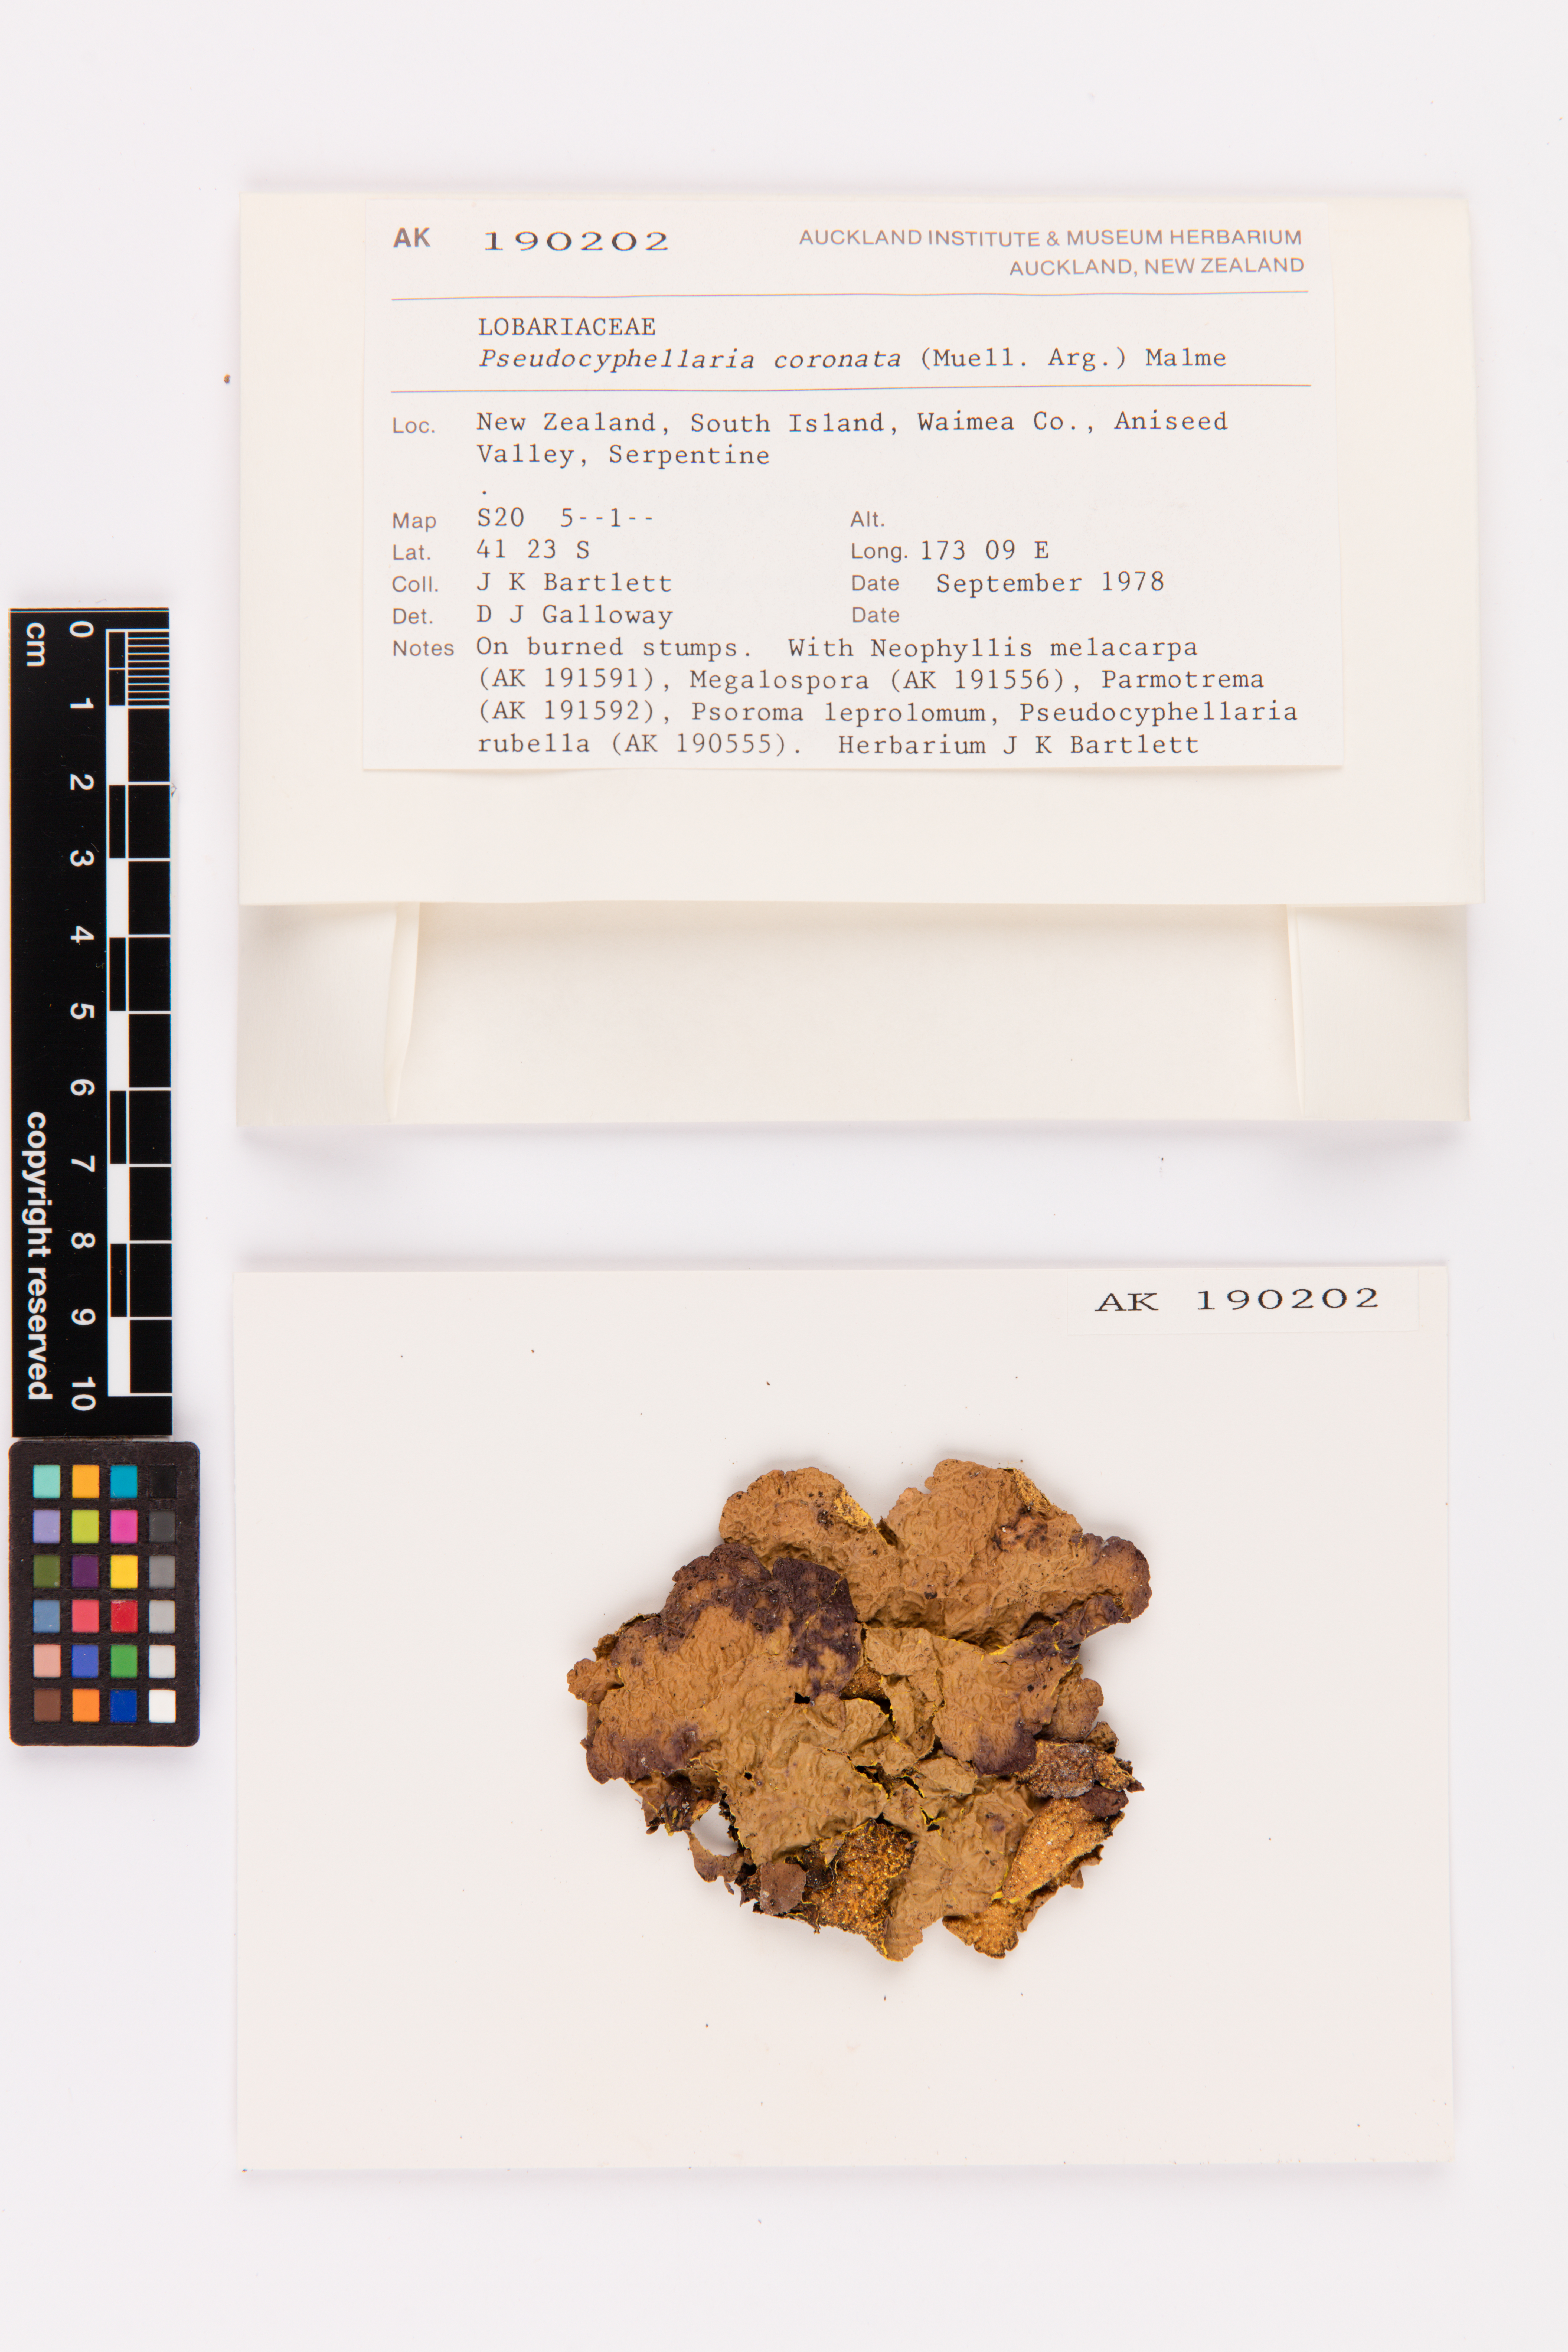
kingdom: Fungi
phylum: Ascomycota
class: Lecanoromycetes
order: Peltigerales
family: Lobariaceae
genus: Yarrumia
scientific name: Yarrumia coronata
